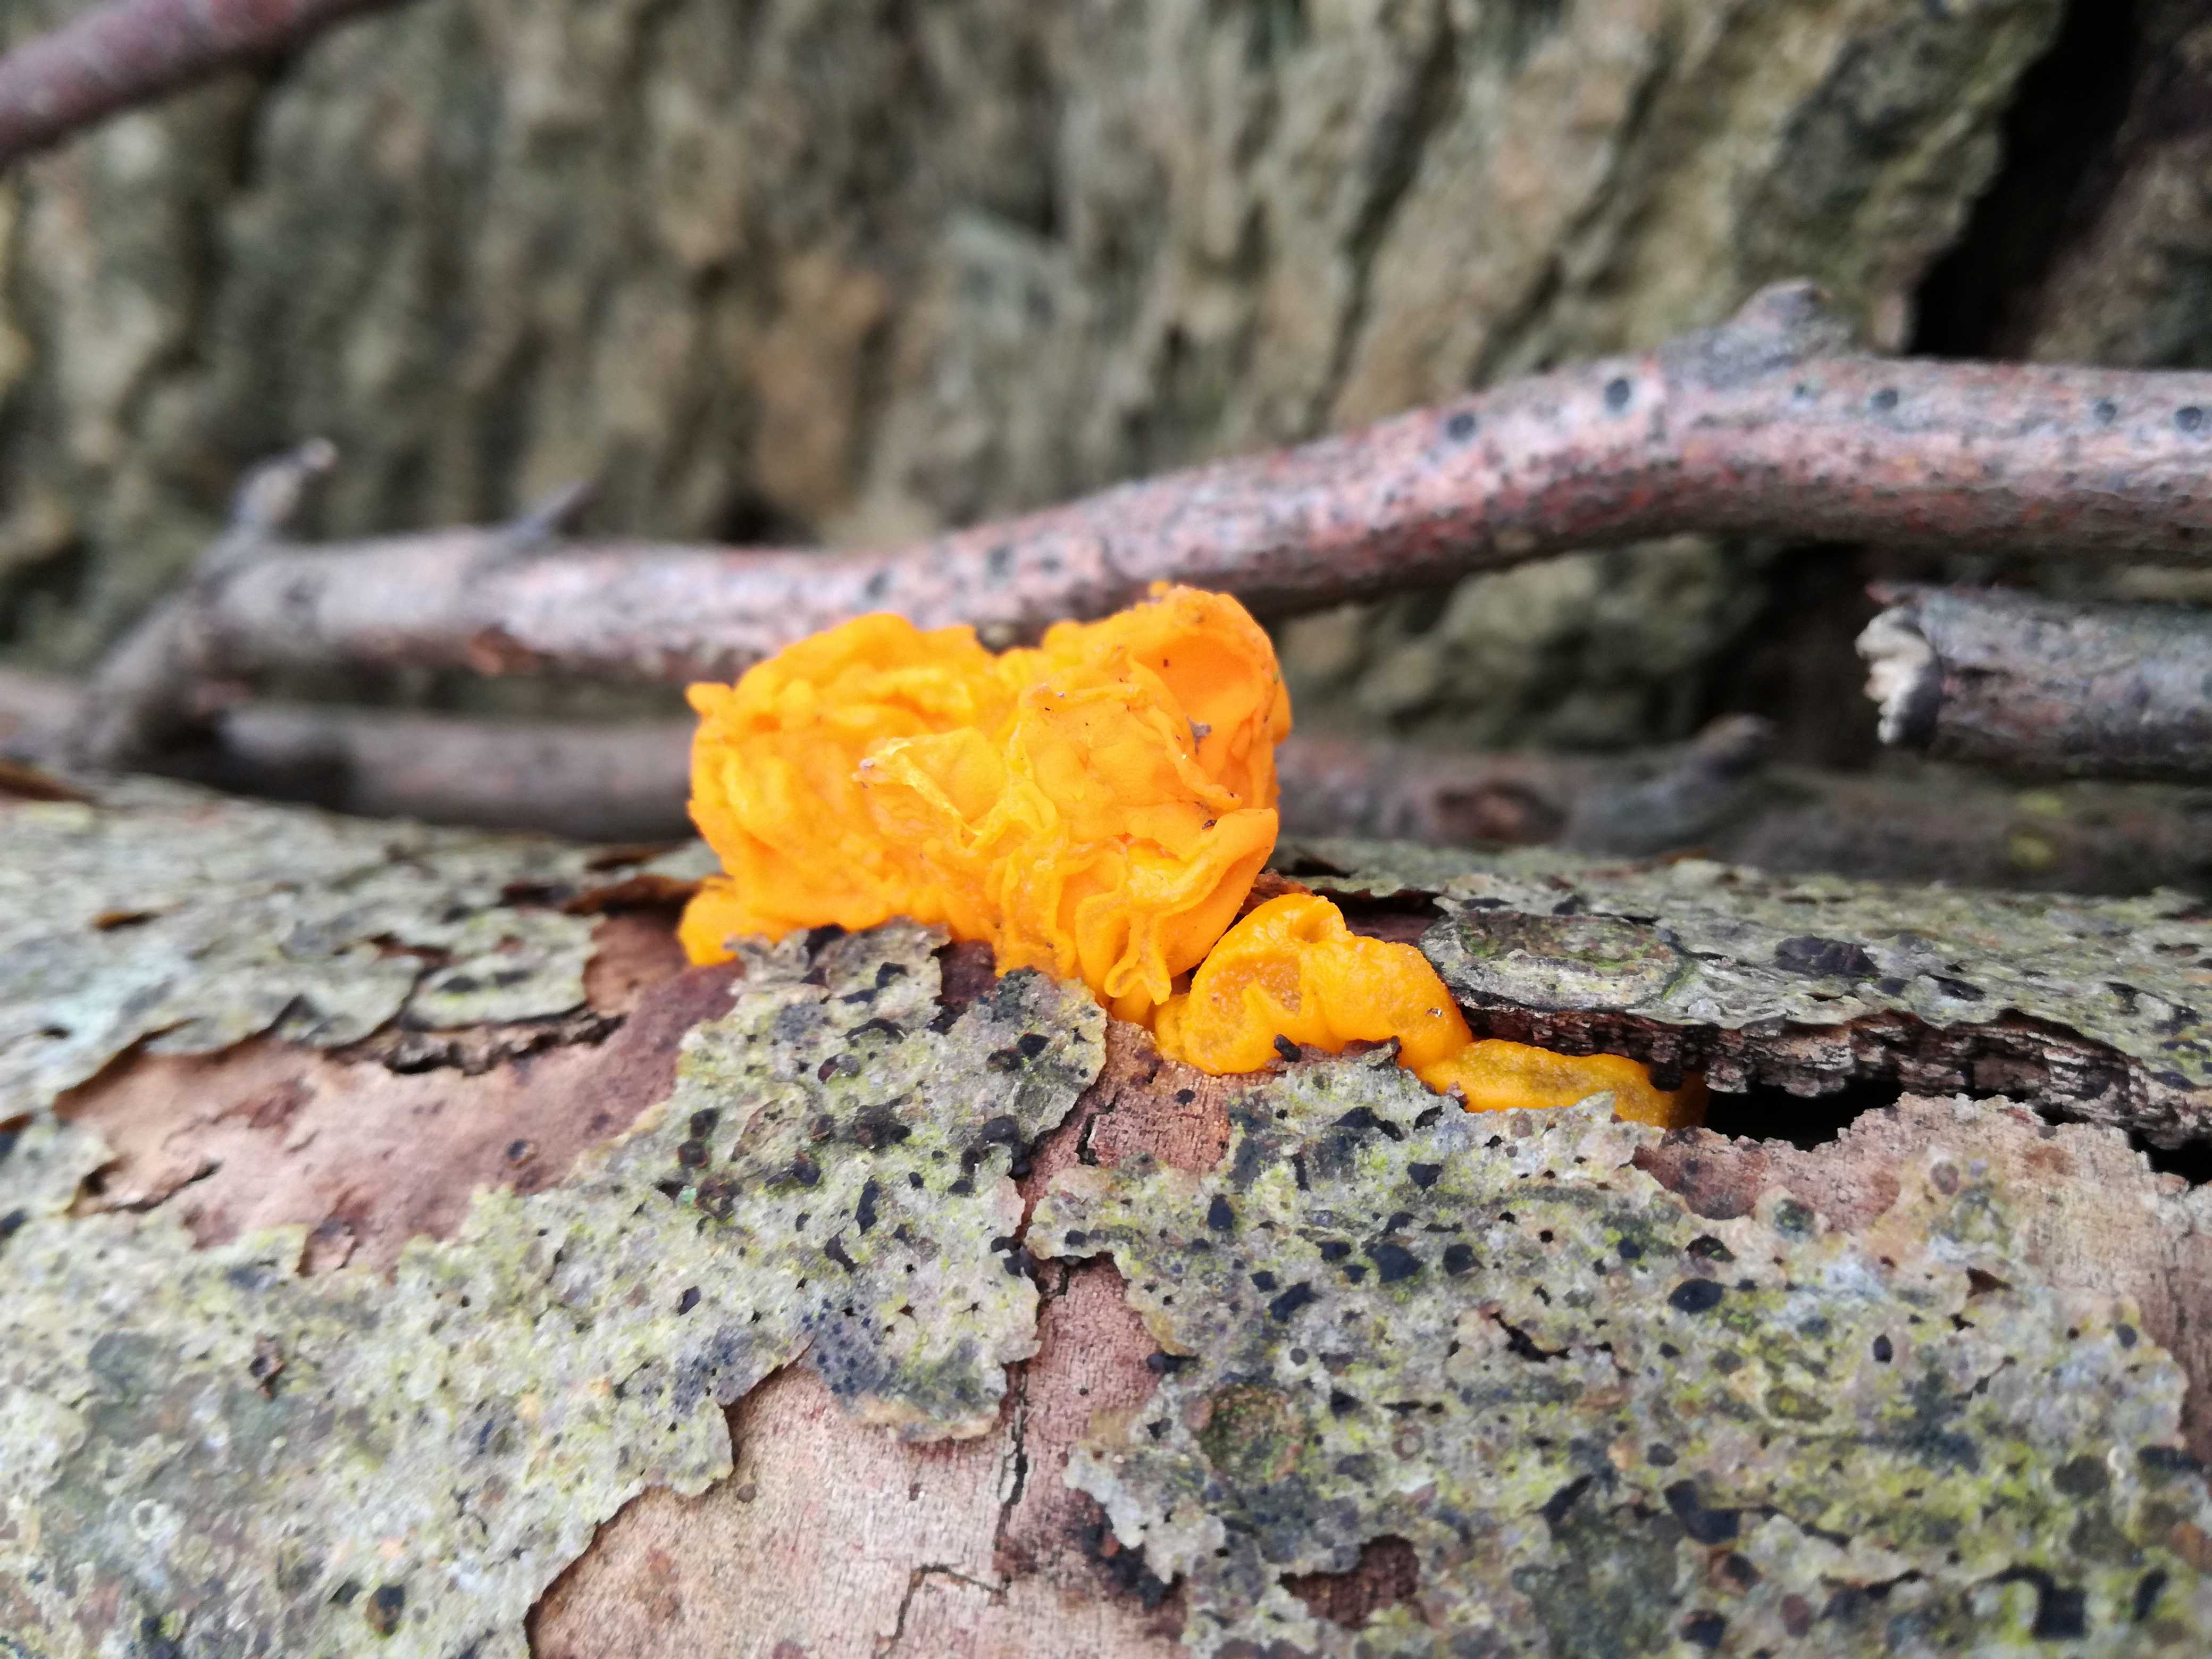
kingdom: Fungi
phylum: Basidiomycota
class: Tremellomycetes
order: Tremellales
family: Tremellaceae
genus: Tremella
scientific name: Tremella mesenterica
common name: gul bævresvamp
